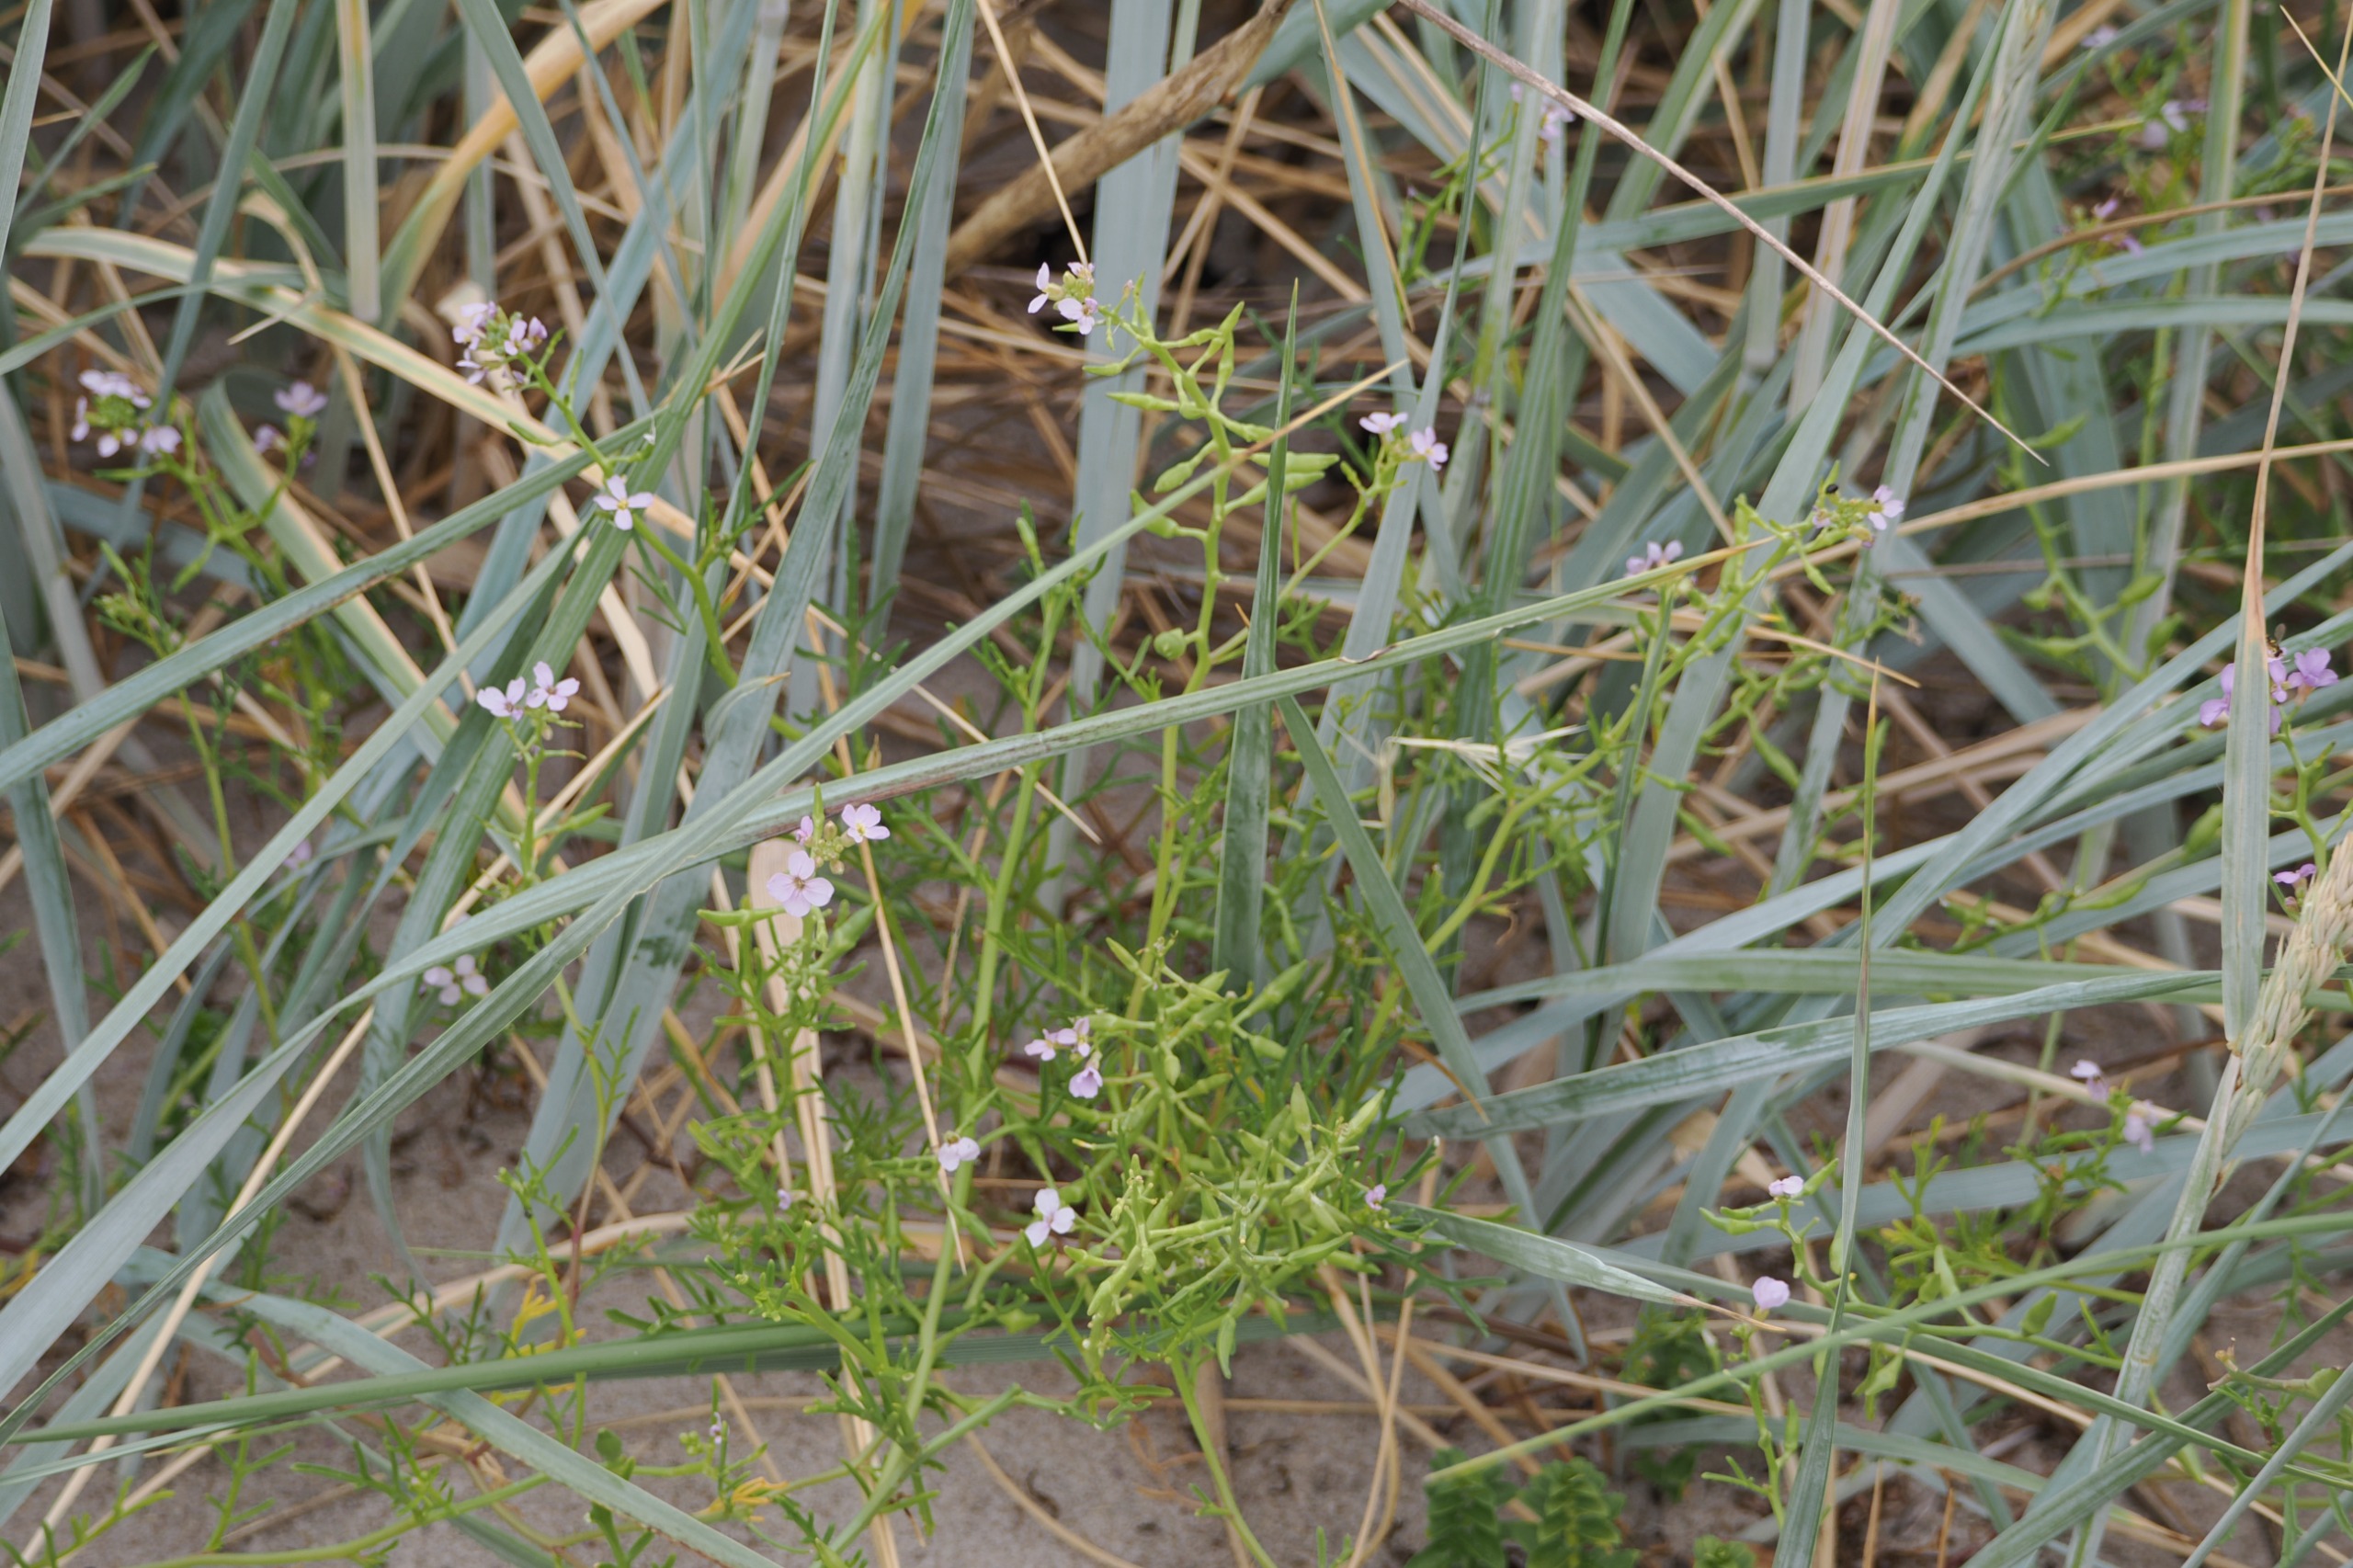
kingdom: Plantae
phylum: Tracheophyta
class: Magnoliopsida
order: Brassicales
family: Brassicaceae
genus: Cakile
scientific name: Cakile maritima
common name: Strandsennep
